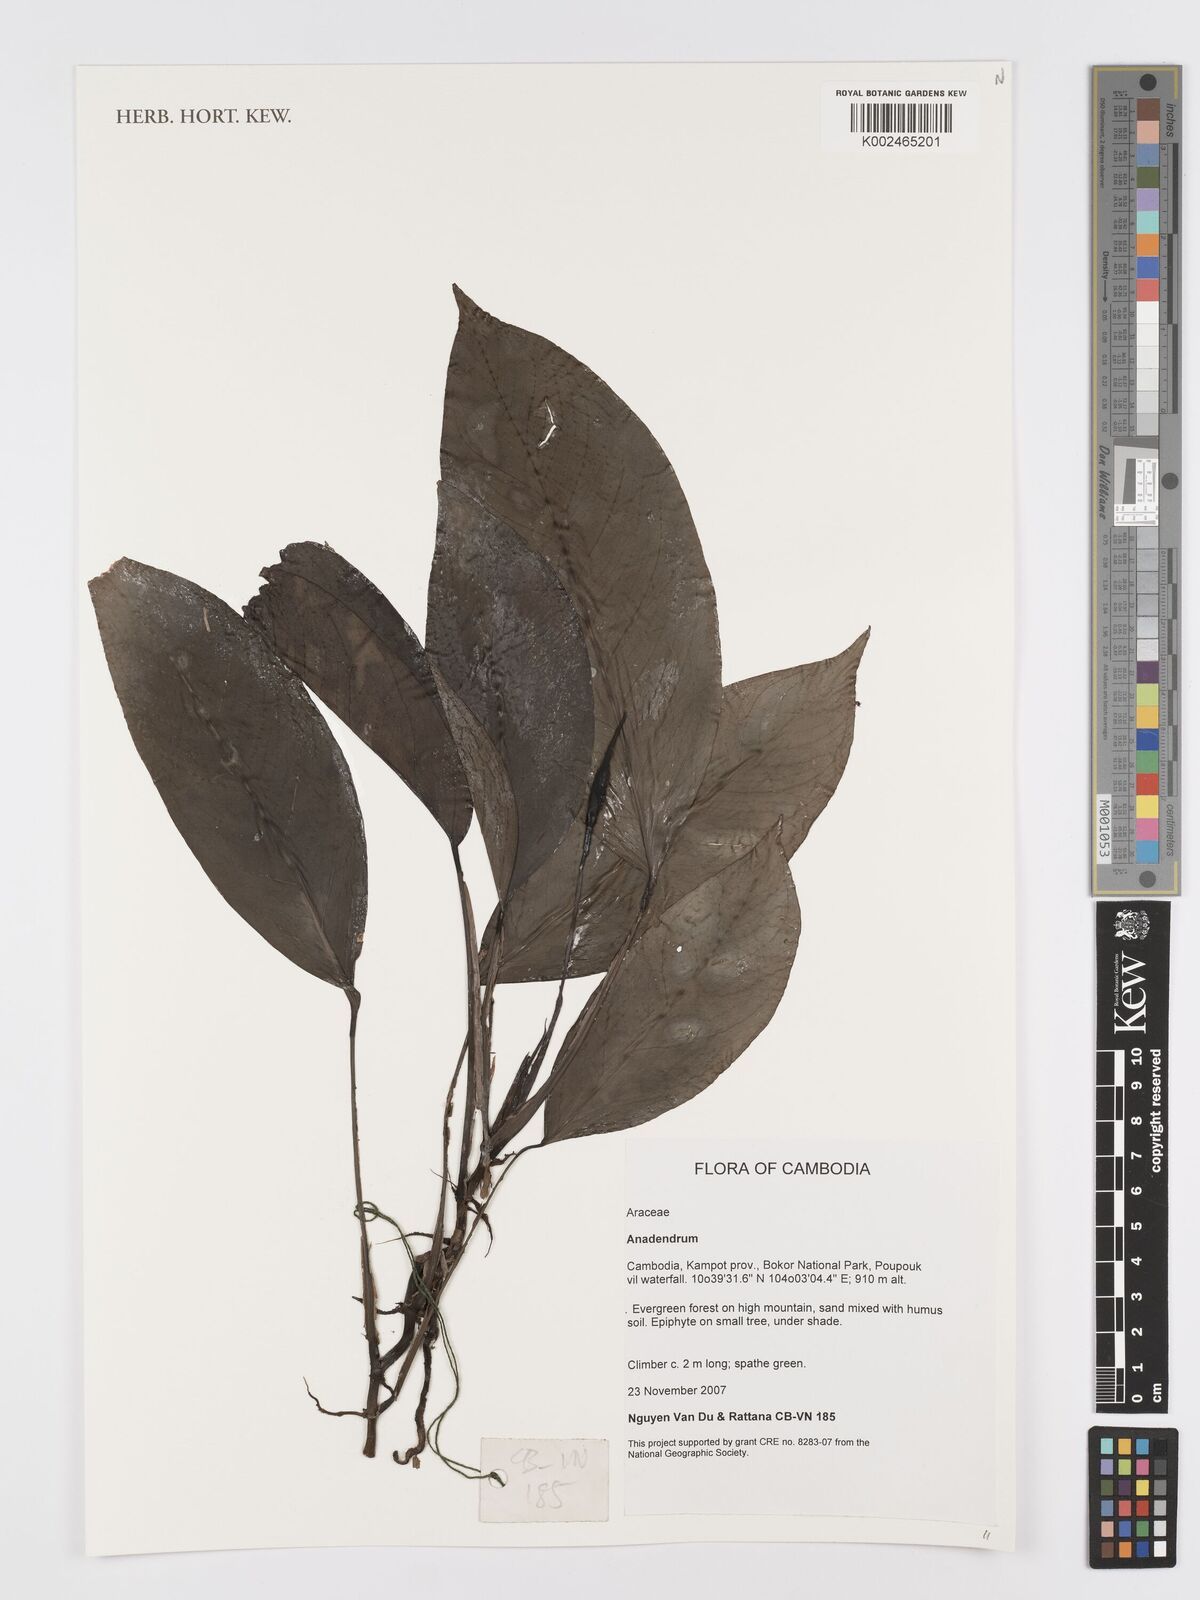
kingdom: Plantae
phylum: Tracheophyta
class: Liliopsida
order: Alismatales
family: Araceae
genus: Anadendrum
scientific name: Anadendrum
